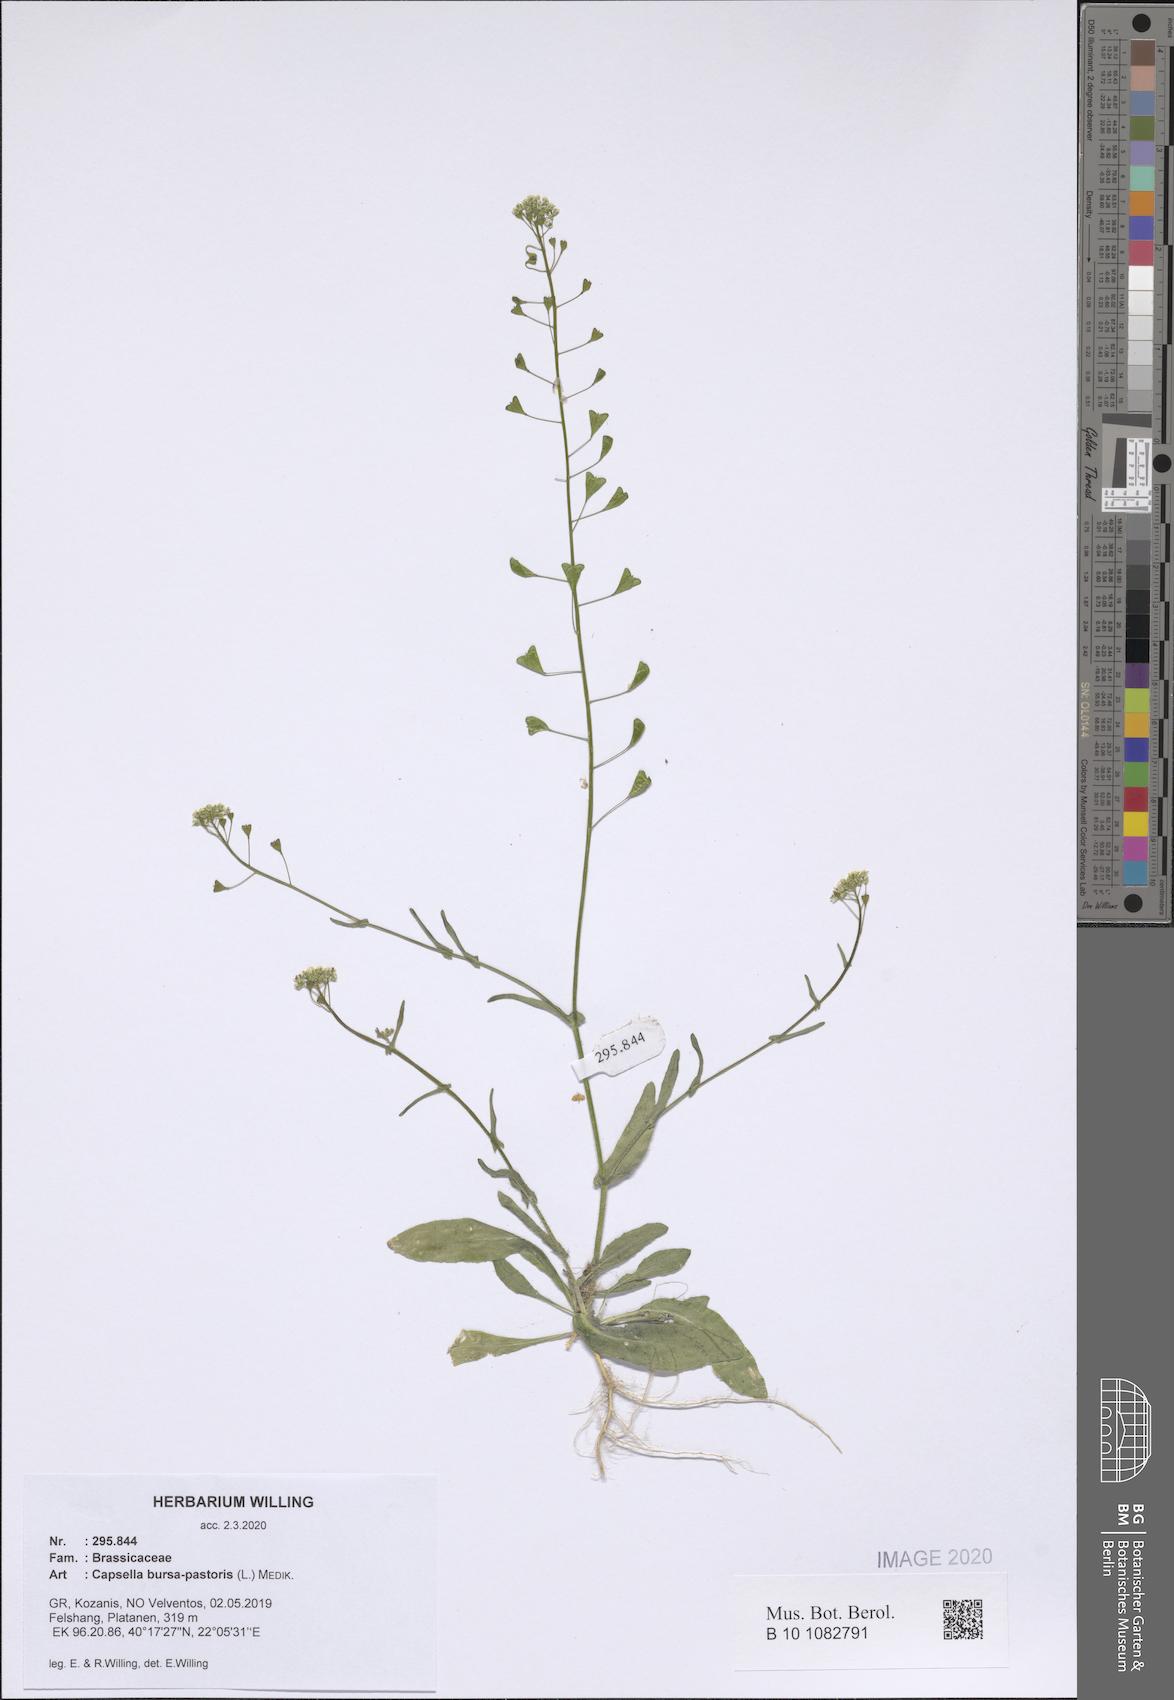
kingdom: Plantae
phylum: Tracheophyta
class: Magnoliopsida
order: Brassicales
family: Brassicaceae
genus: Capsella
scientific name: Capsella bursa-pastoris
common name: Shepherd's purse
